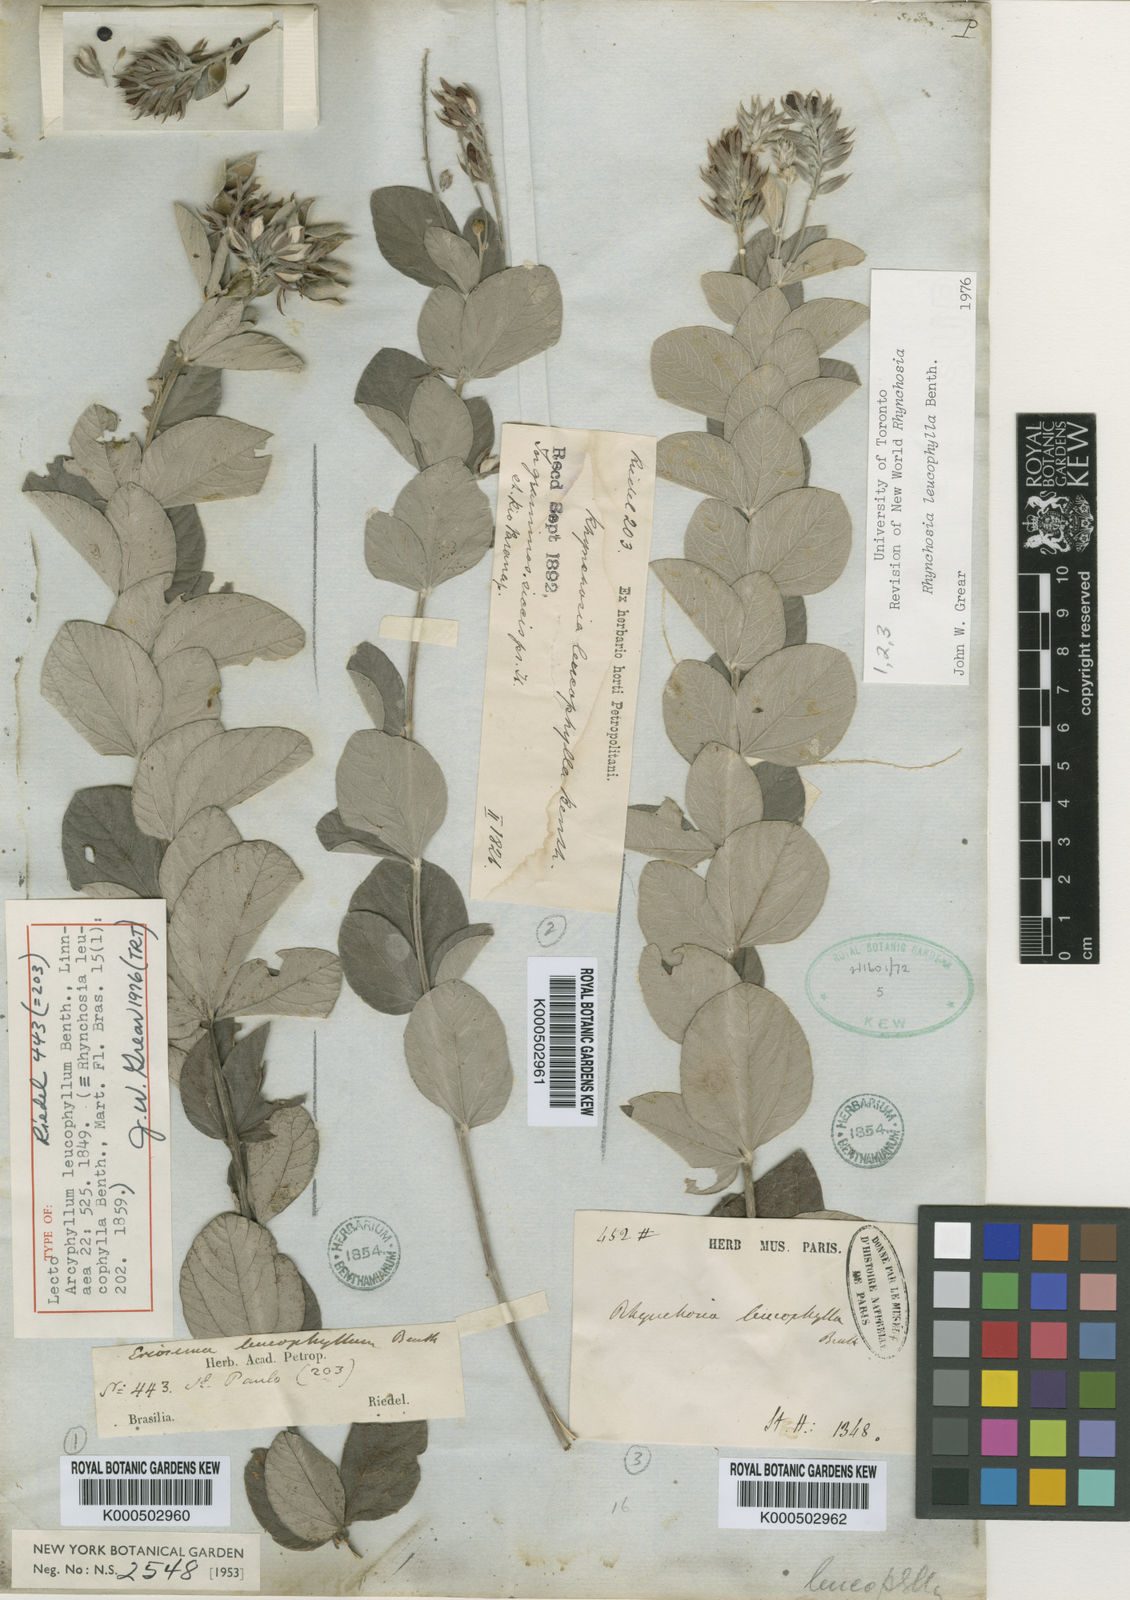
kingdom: Plantae
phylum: Tracheophyta
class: Magnoliopsida
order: Fabales
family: Fabaceae
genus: Rhynchosia
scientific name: Rhynchosia leucophylla
